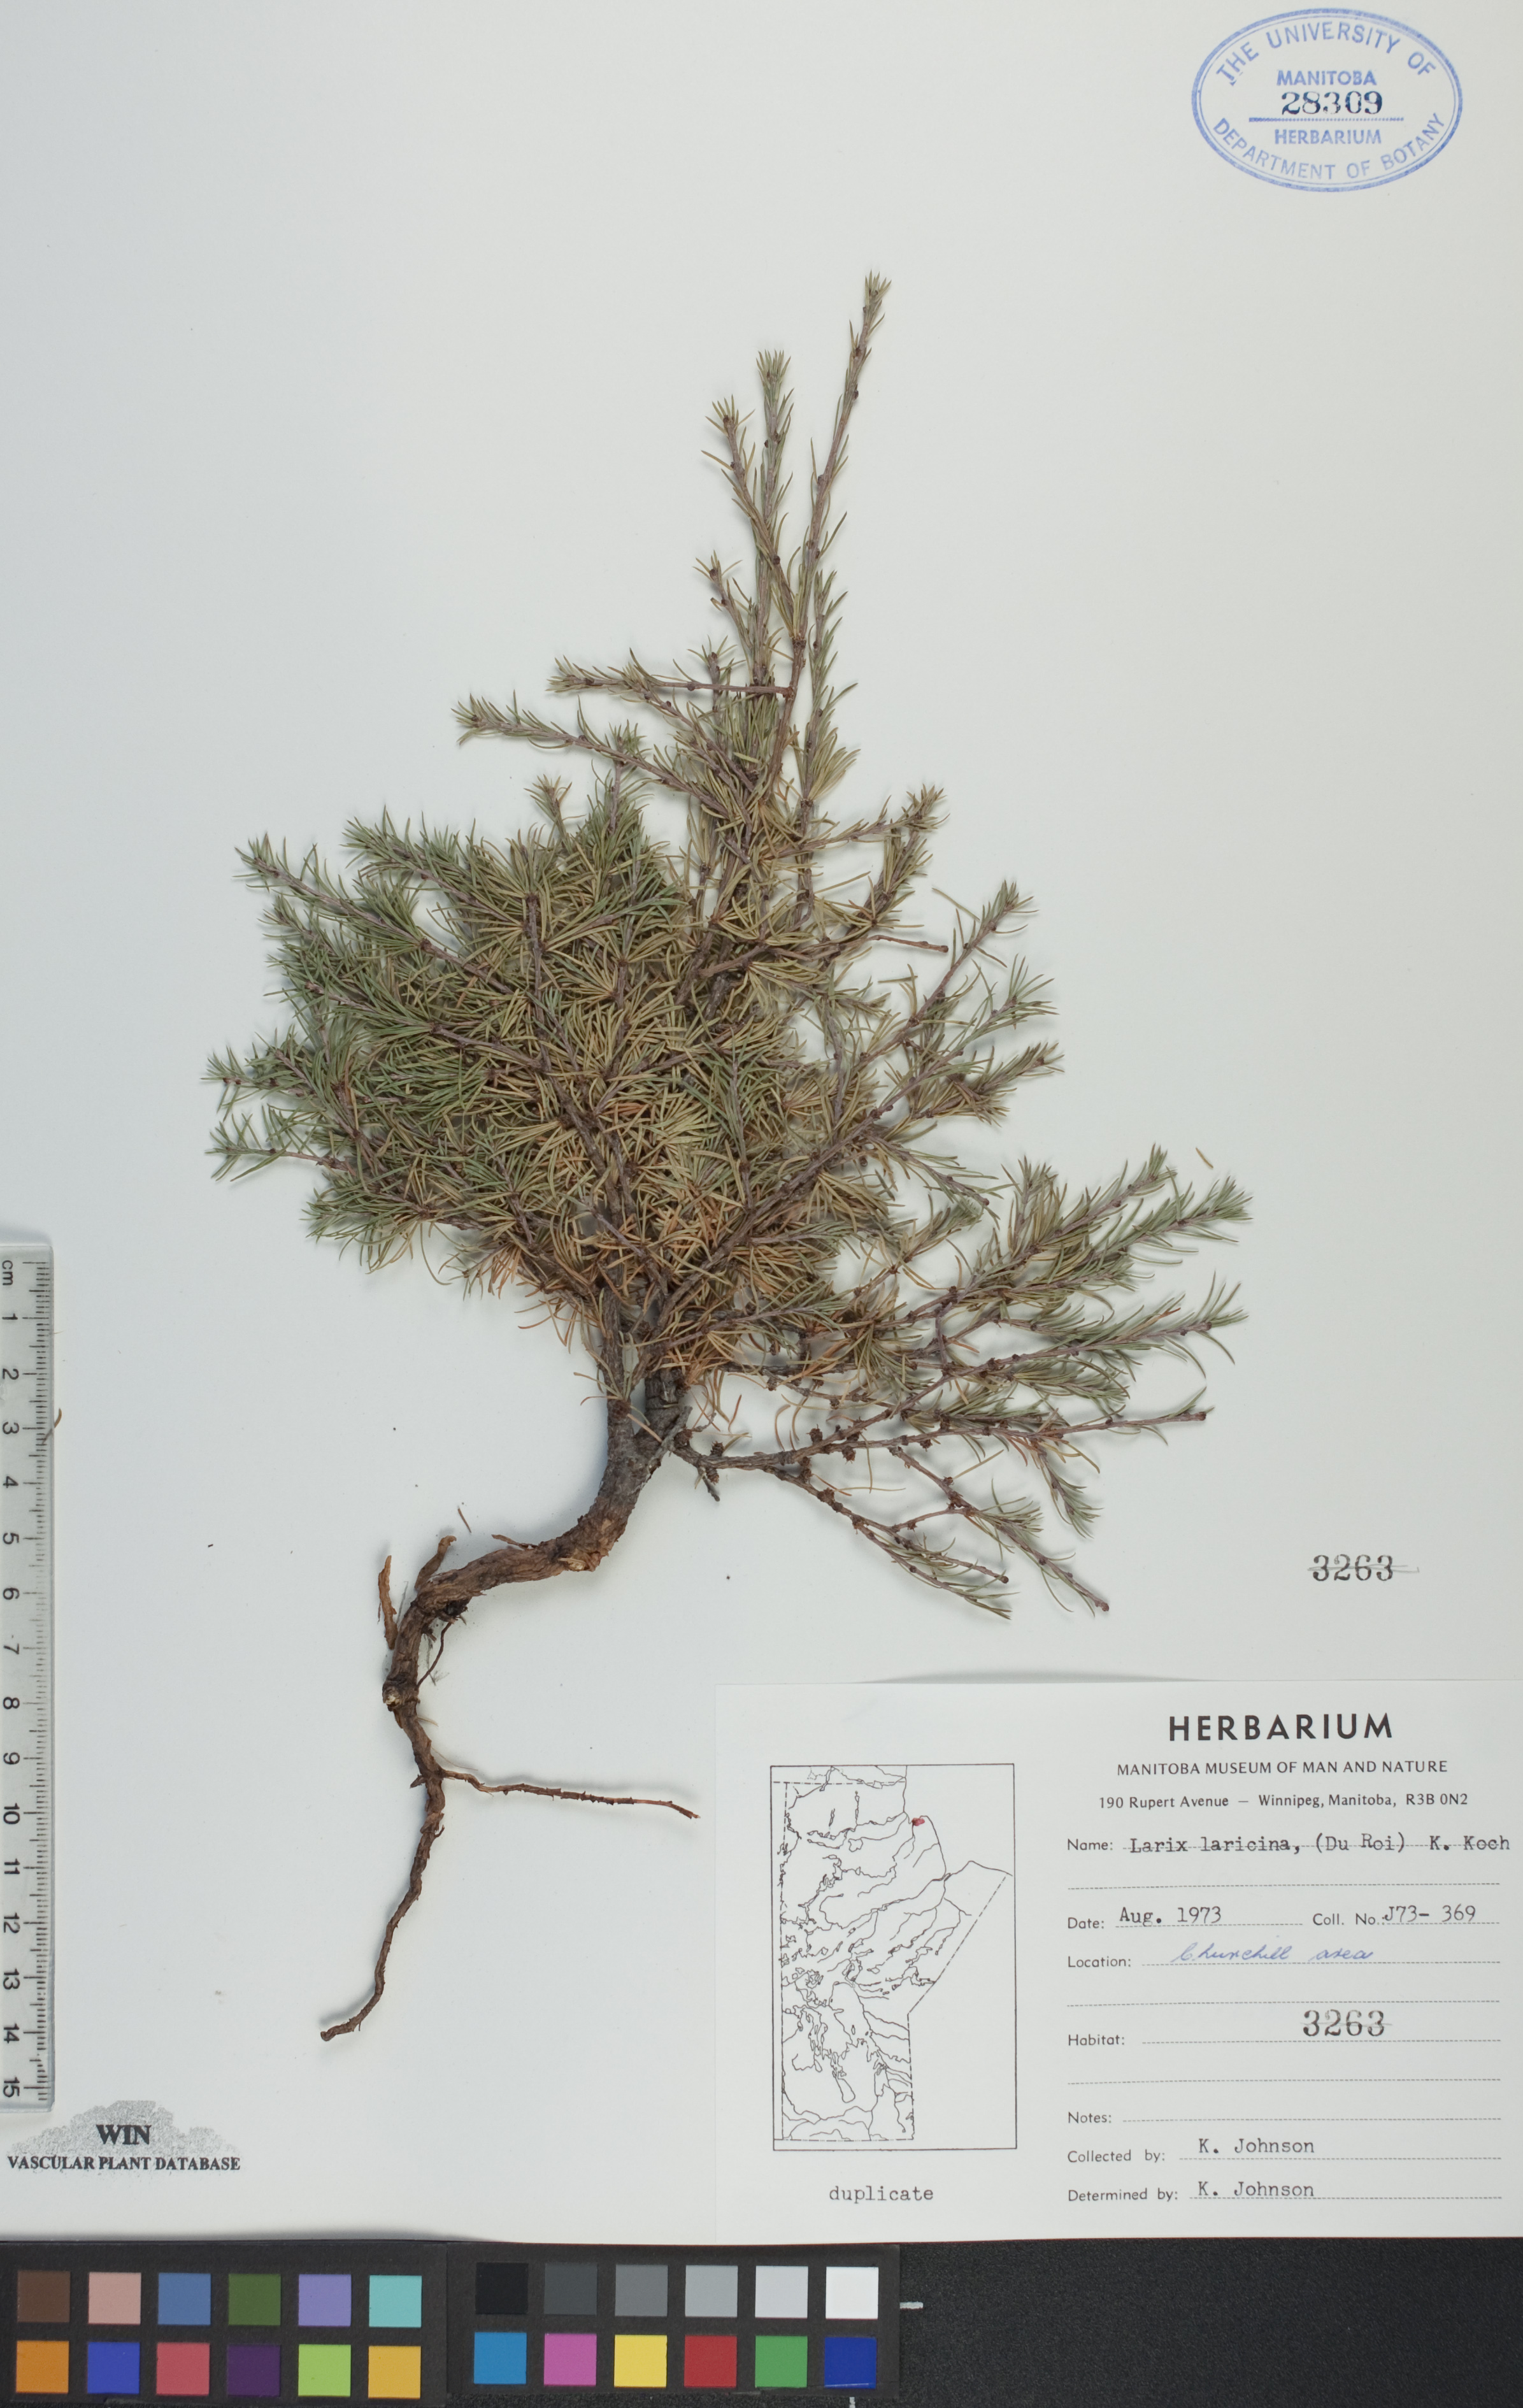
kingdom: Plantae
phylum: Tracheophyta
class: Pinopsida
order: Pinales
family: Pinaceae
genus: Larix
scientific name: Larix laricina
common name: American larch
